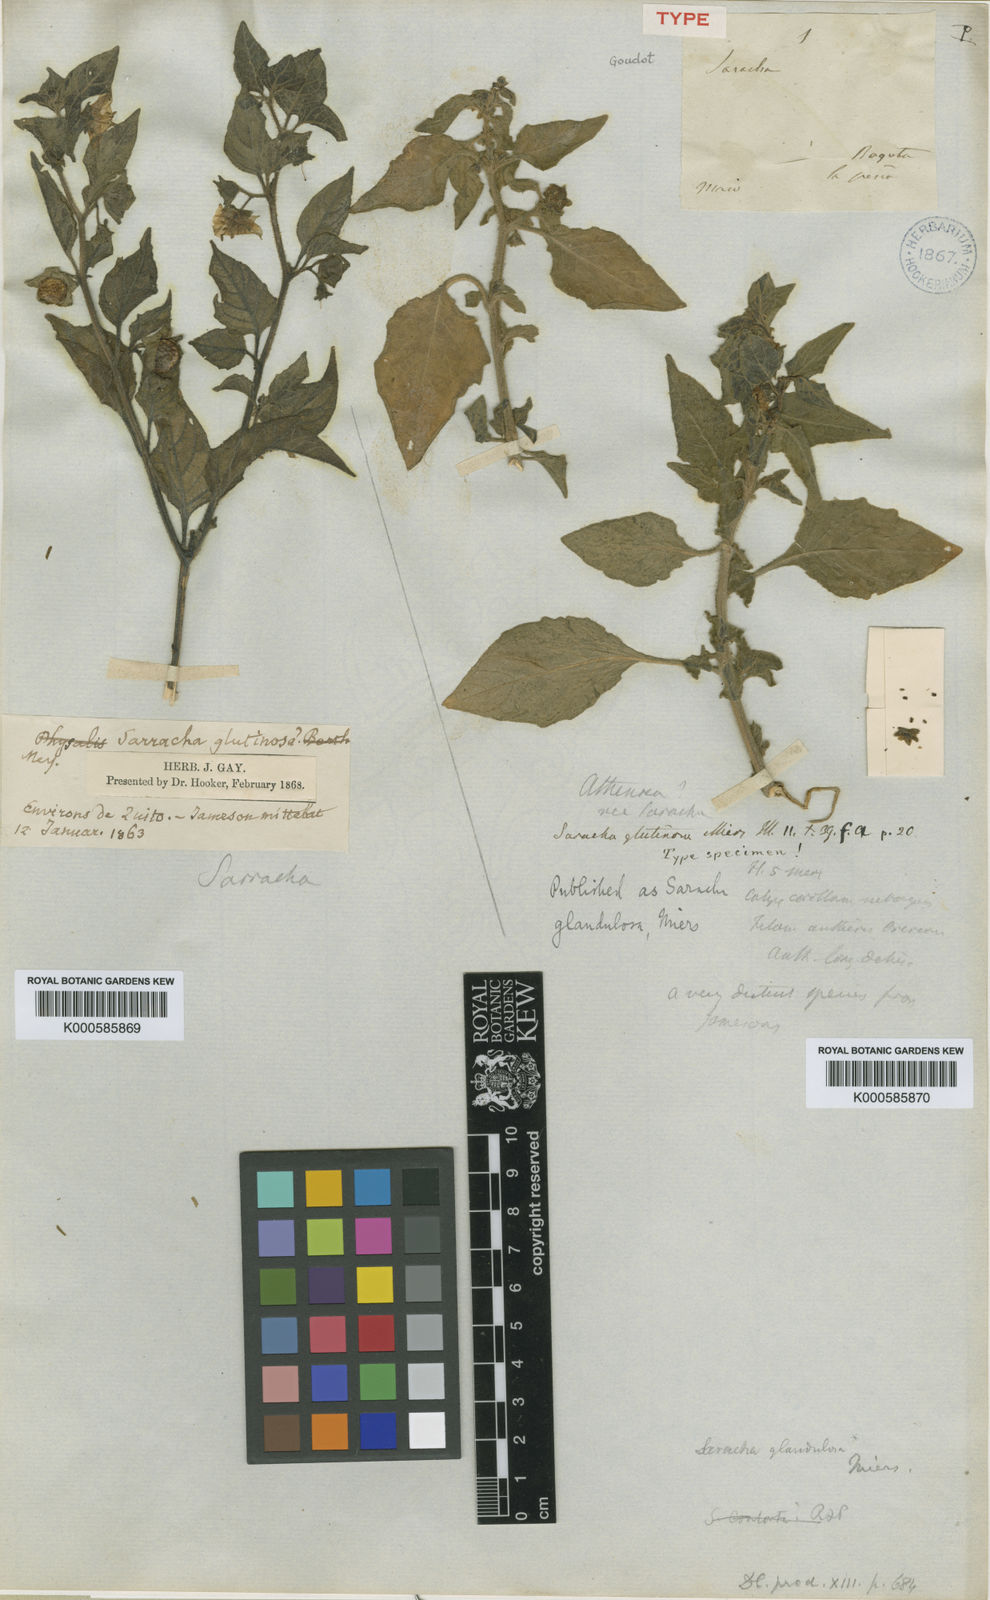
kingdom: Plantae
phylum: Tracheophyta
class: Magnoliopsida
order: Solanales
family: Solanaceae
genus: Jaltomata
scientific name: Jaltomata sinuosa
